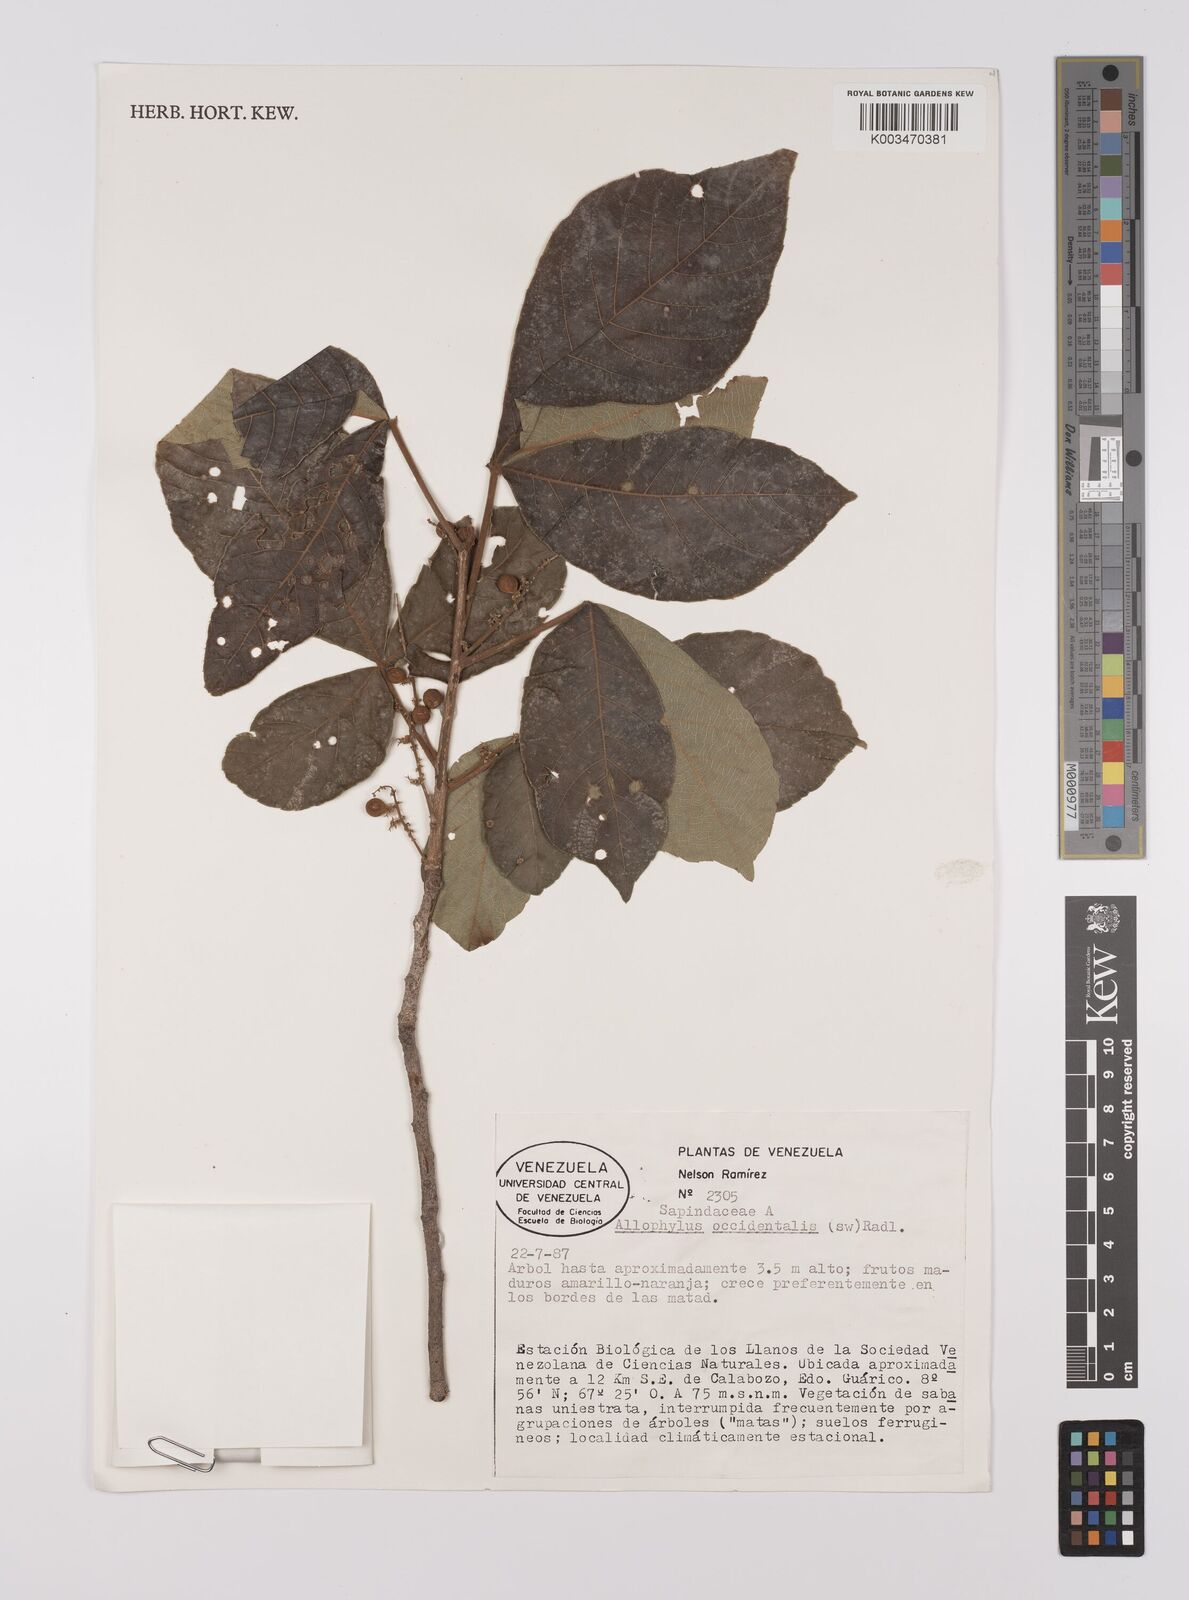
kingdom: Plantae
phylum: Tracheophyta
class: Magnoliopsida
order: Sapindales
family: Sapindaceae
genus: Allophylus
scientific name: Allophylus
